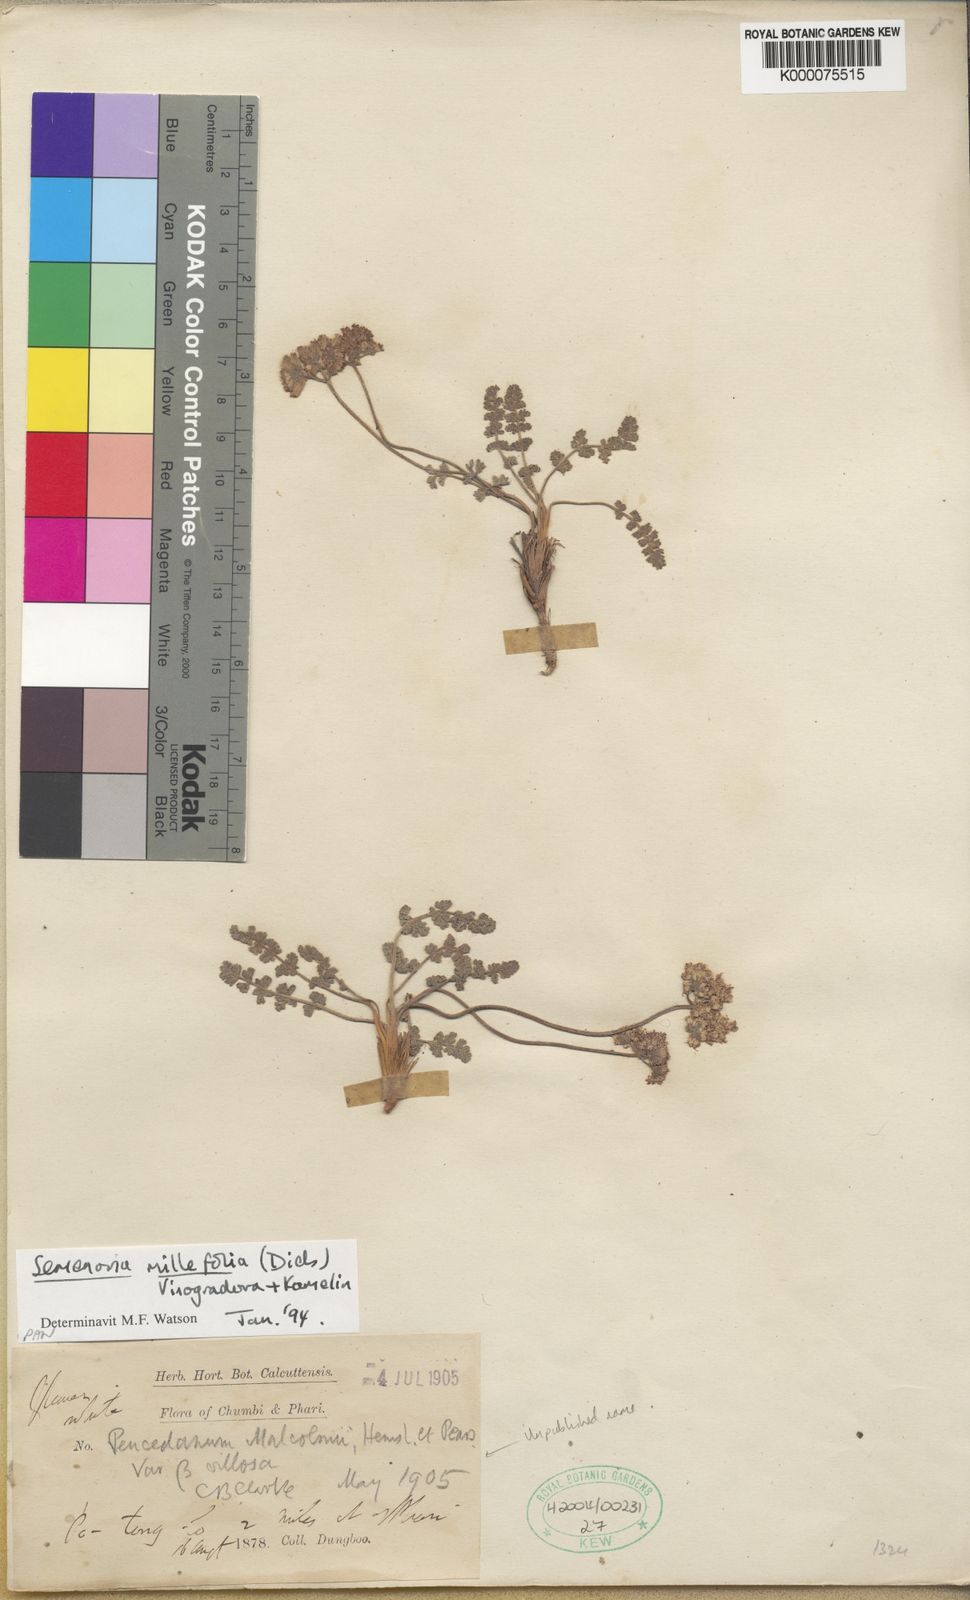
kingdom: Plantae
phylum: Tracheophyta
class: Magnoliopsida
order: Apiales
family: Apiaceae
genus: Semenovia
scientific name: Semenovia torilifolia
